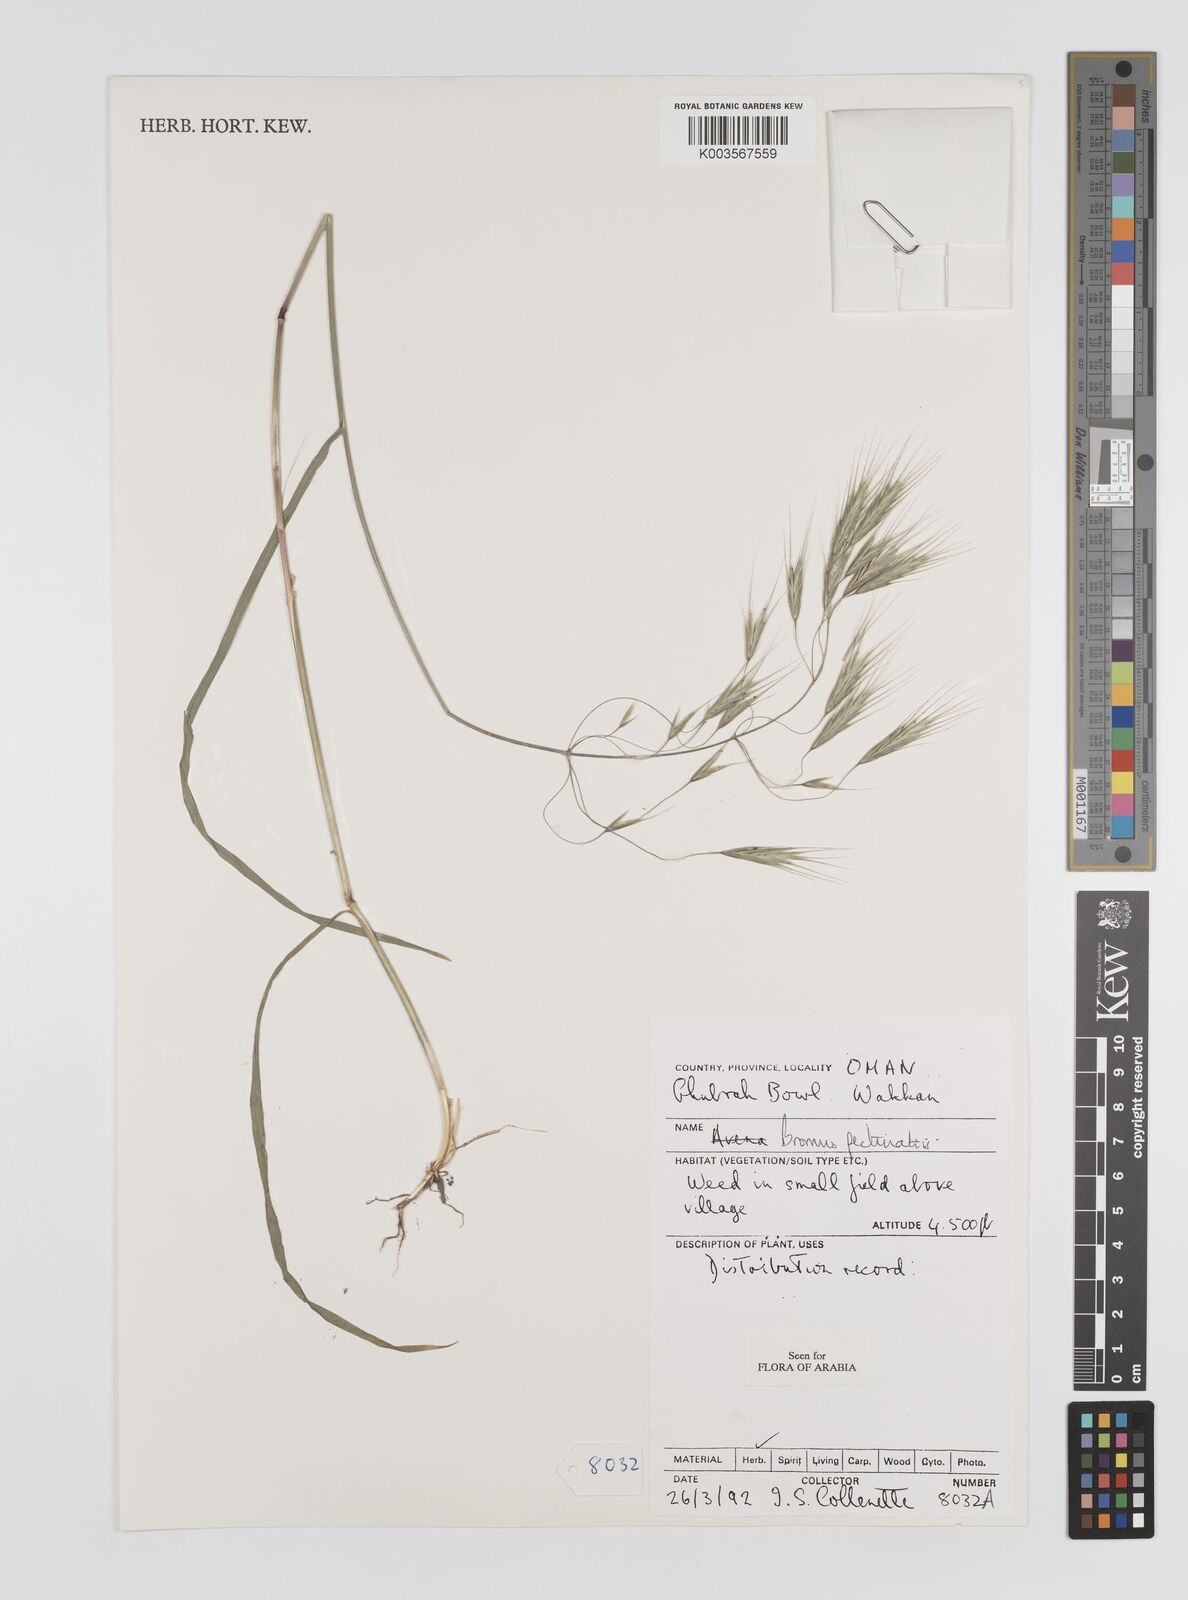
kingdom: Plantae
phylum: Tracheophyta
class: Liliopsida
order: Poales
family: Poaceae
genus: Bromus
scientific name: Bromus pectinatus
